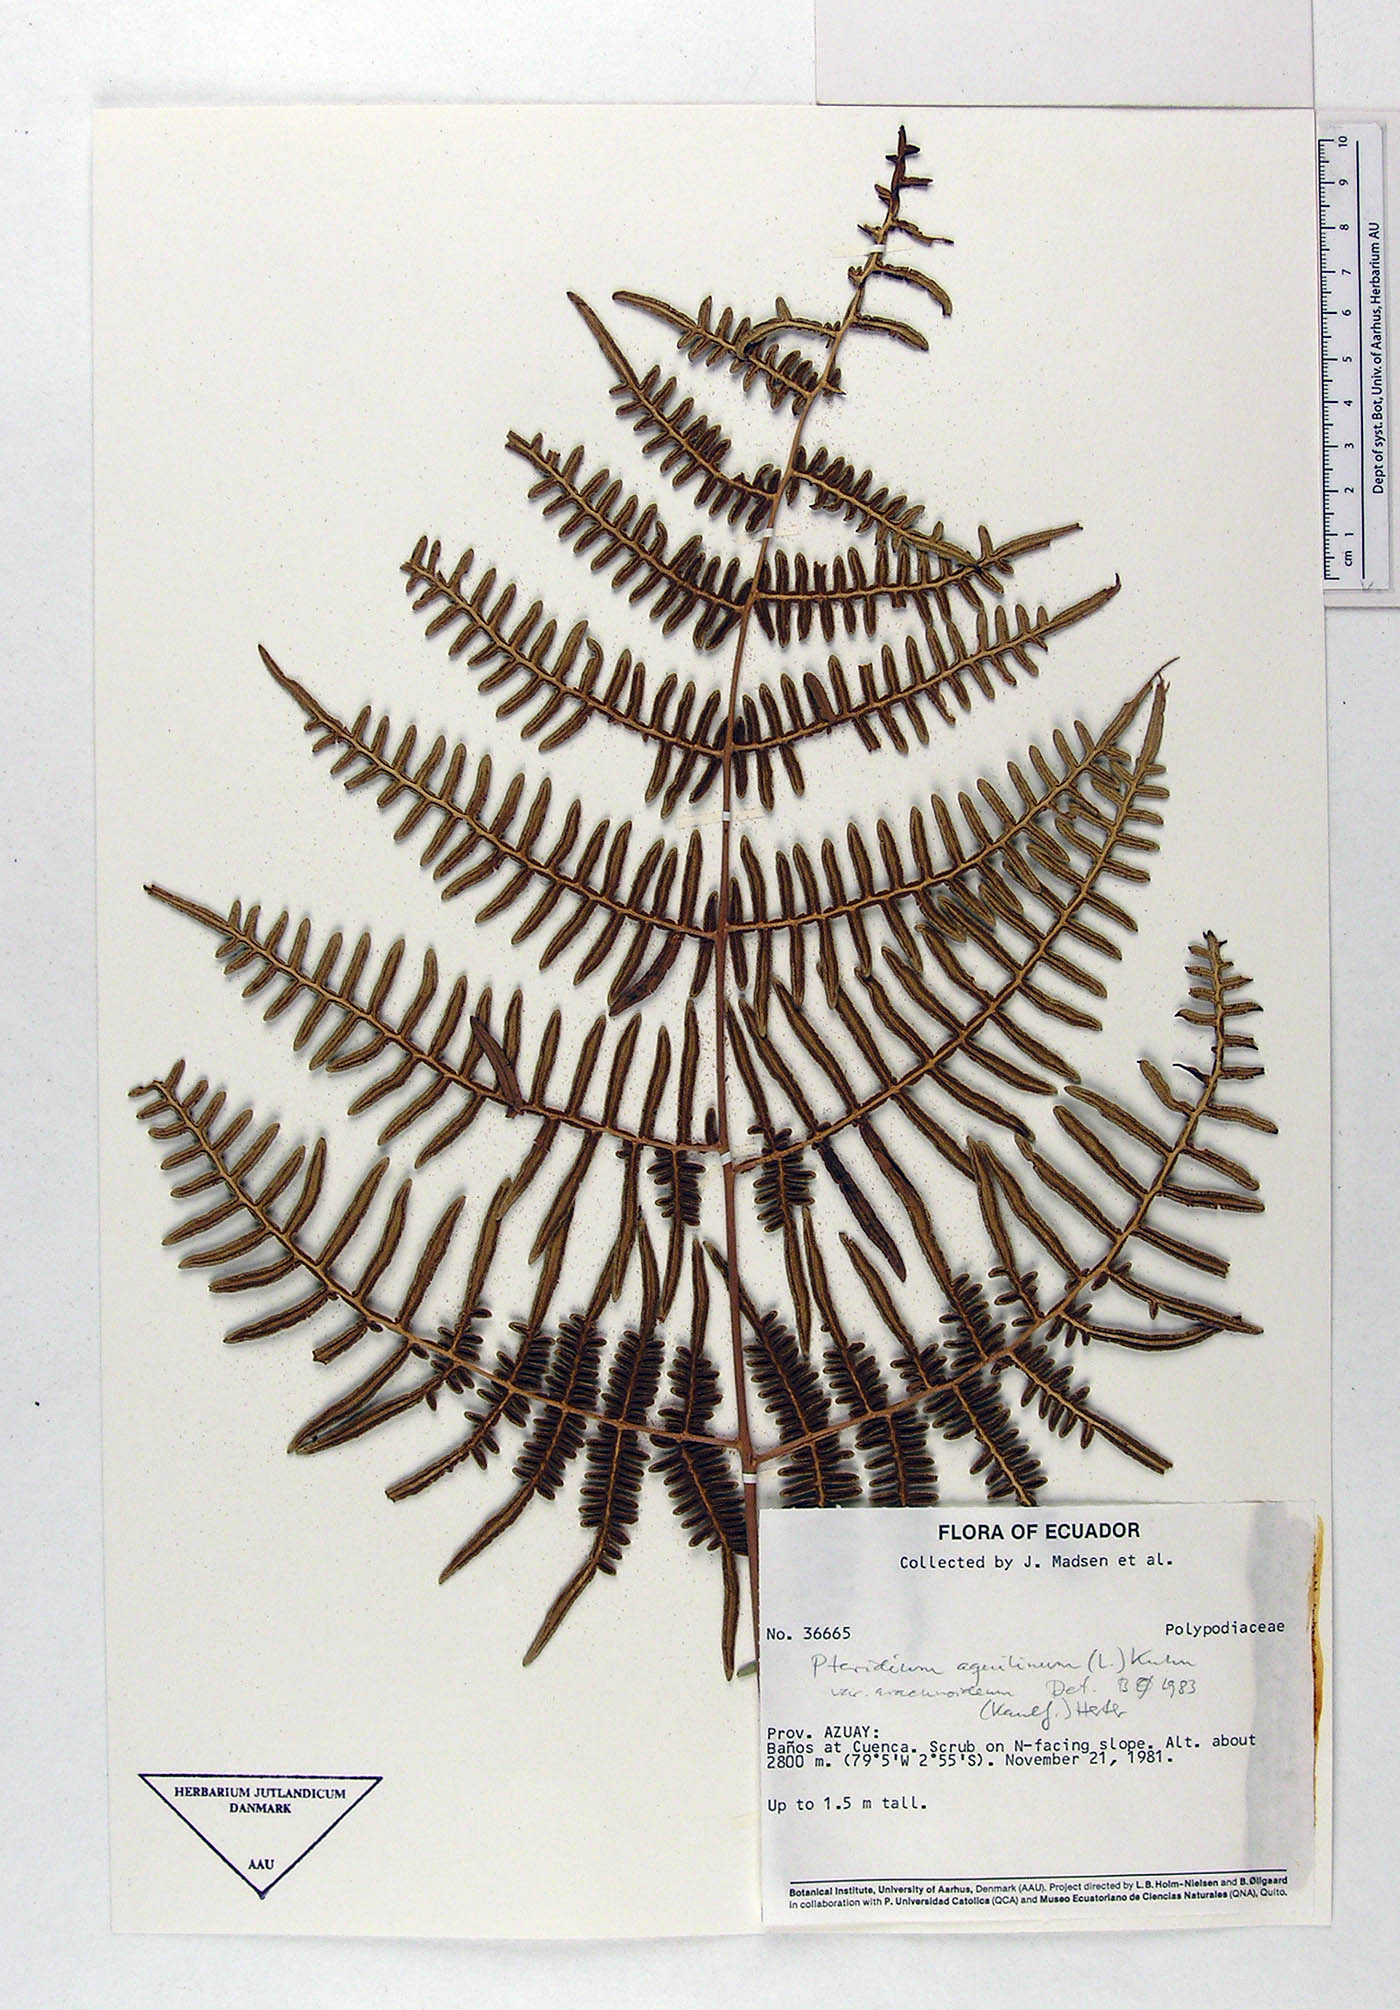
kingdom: Plantae
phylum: Tracheophyta
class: Polypodiopsida
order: Polypodiales
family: Dennstaedtiaceae
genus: Pteridium
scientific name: Pteridium aquilinum
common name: Bracken
